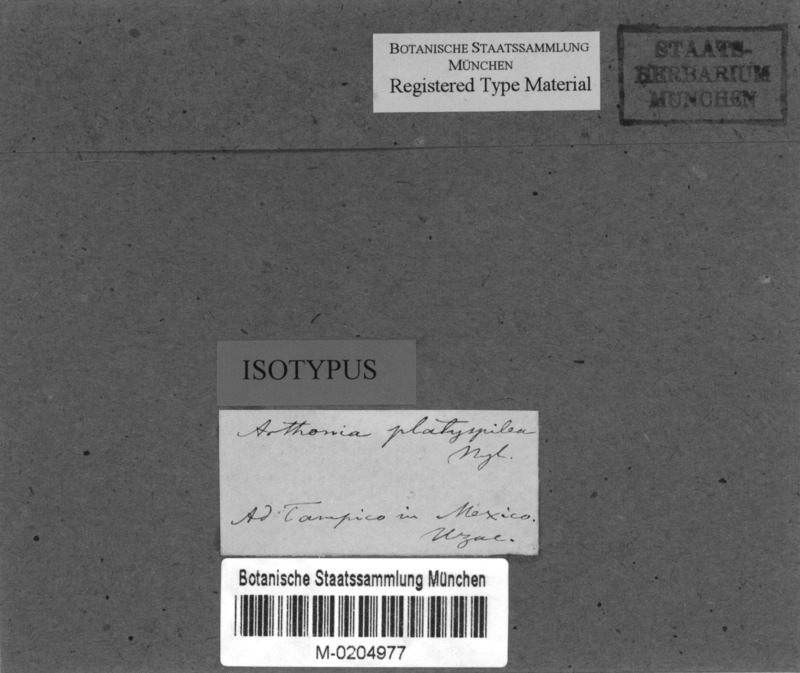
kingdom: Fungi
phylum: Ascomycota
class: Arthoniomycetes
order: Arthoniales
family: Arthoniaceae
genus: Arthonia
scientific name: Arthonia platyspilea
